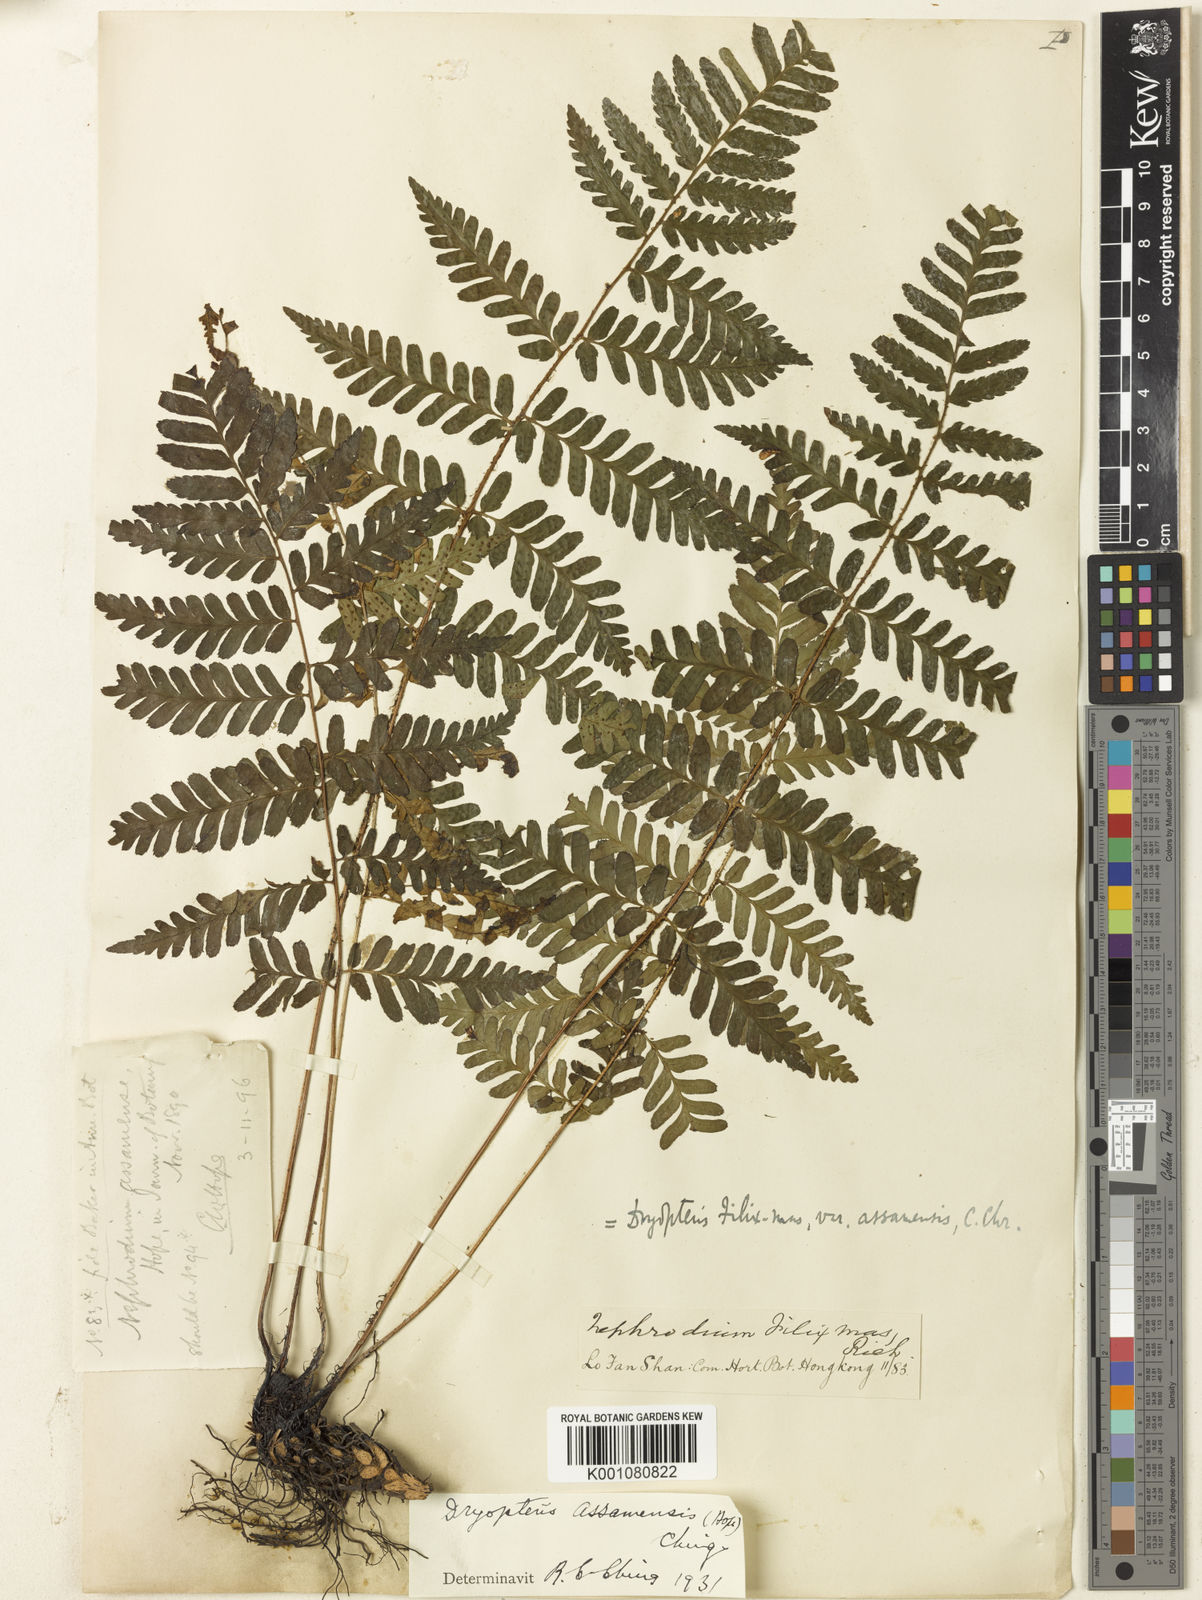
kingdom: Plantae
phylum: Tracheophyta
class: Polypodiopsida
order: Polypodiales
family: Dryopteridaceae
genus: Dryopteris
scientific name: Dryopteris assamensis
